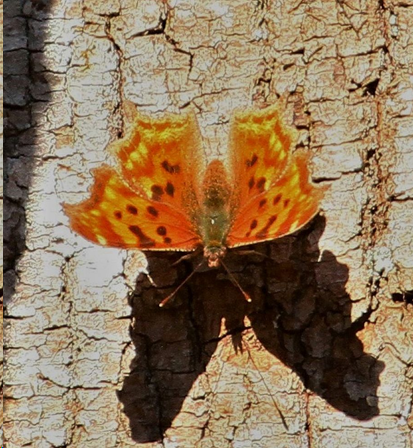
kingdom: Animalia
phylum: Arthropoda
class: Insecta
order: Lepidoptera
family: Nymphalidae
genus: Polygonia
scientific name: Polygonia satyrus
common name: Satyr Comma
